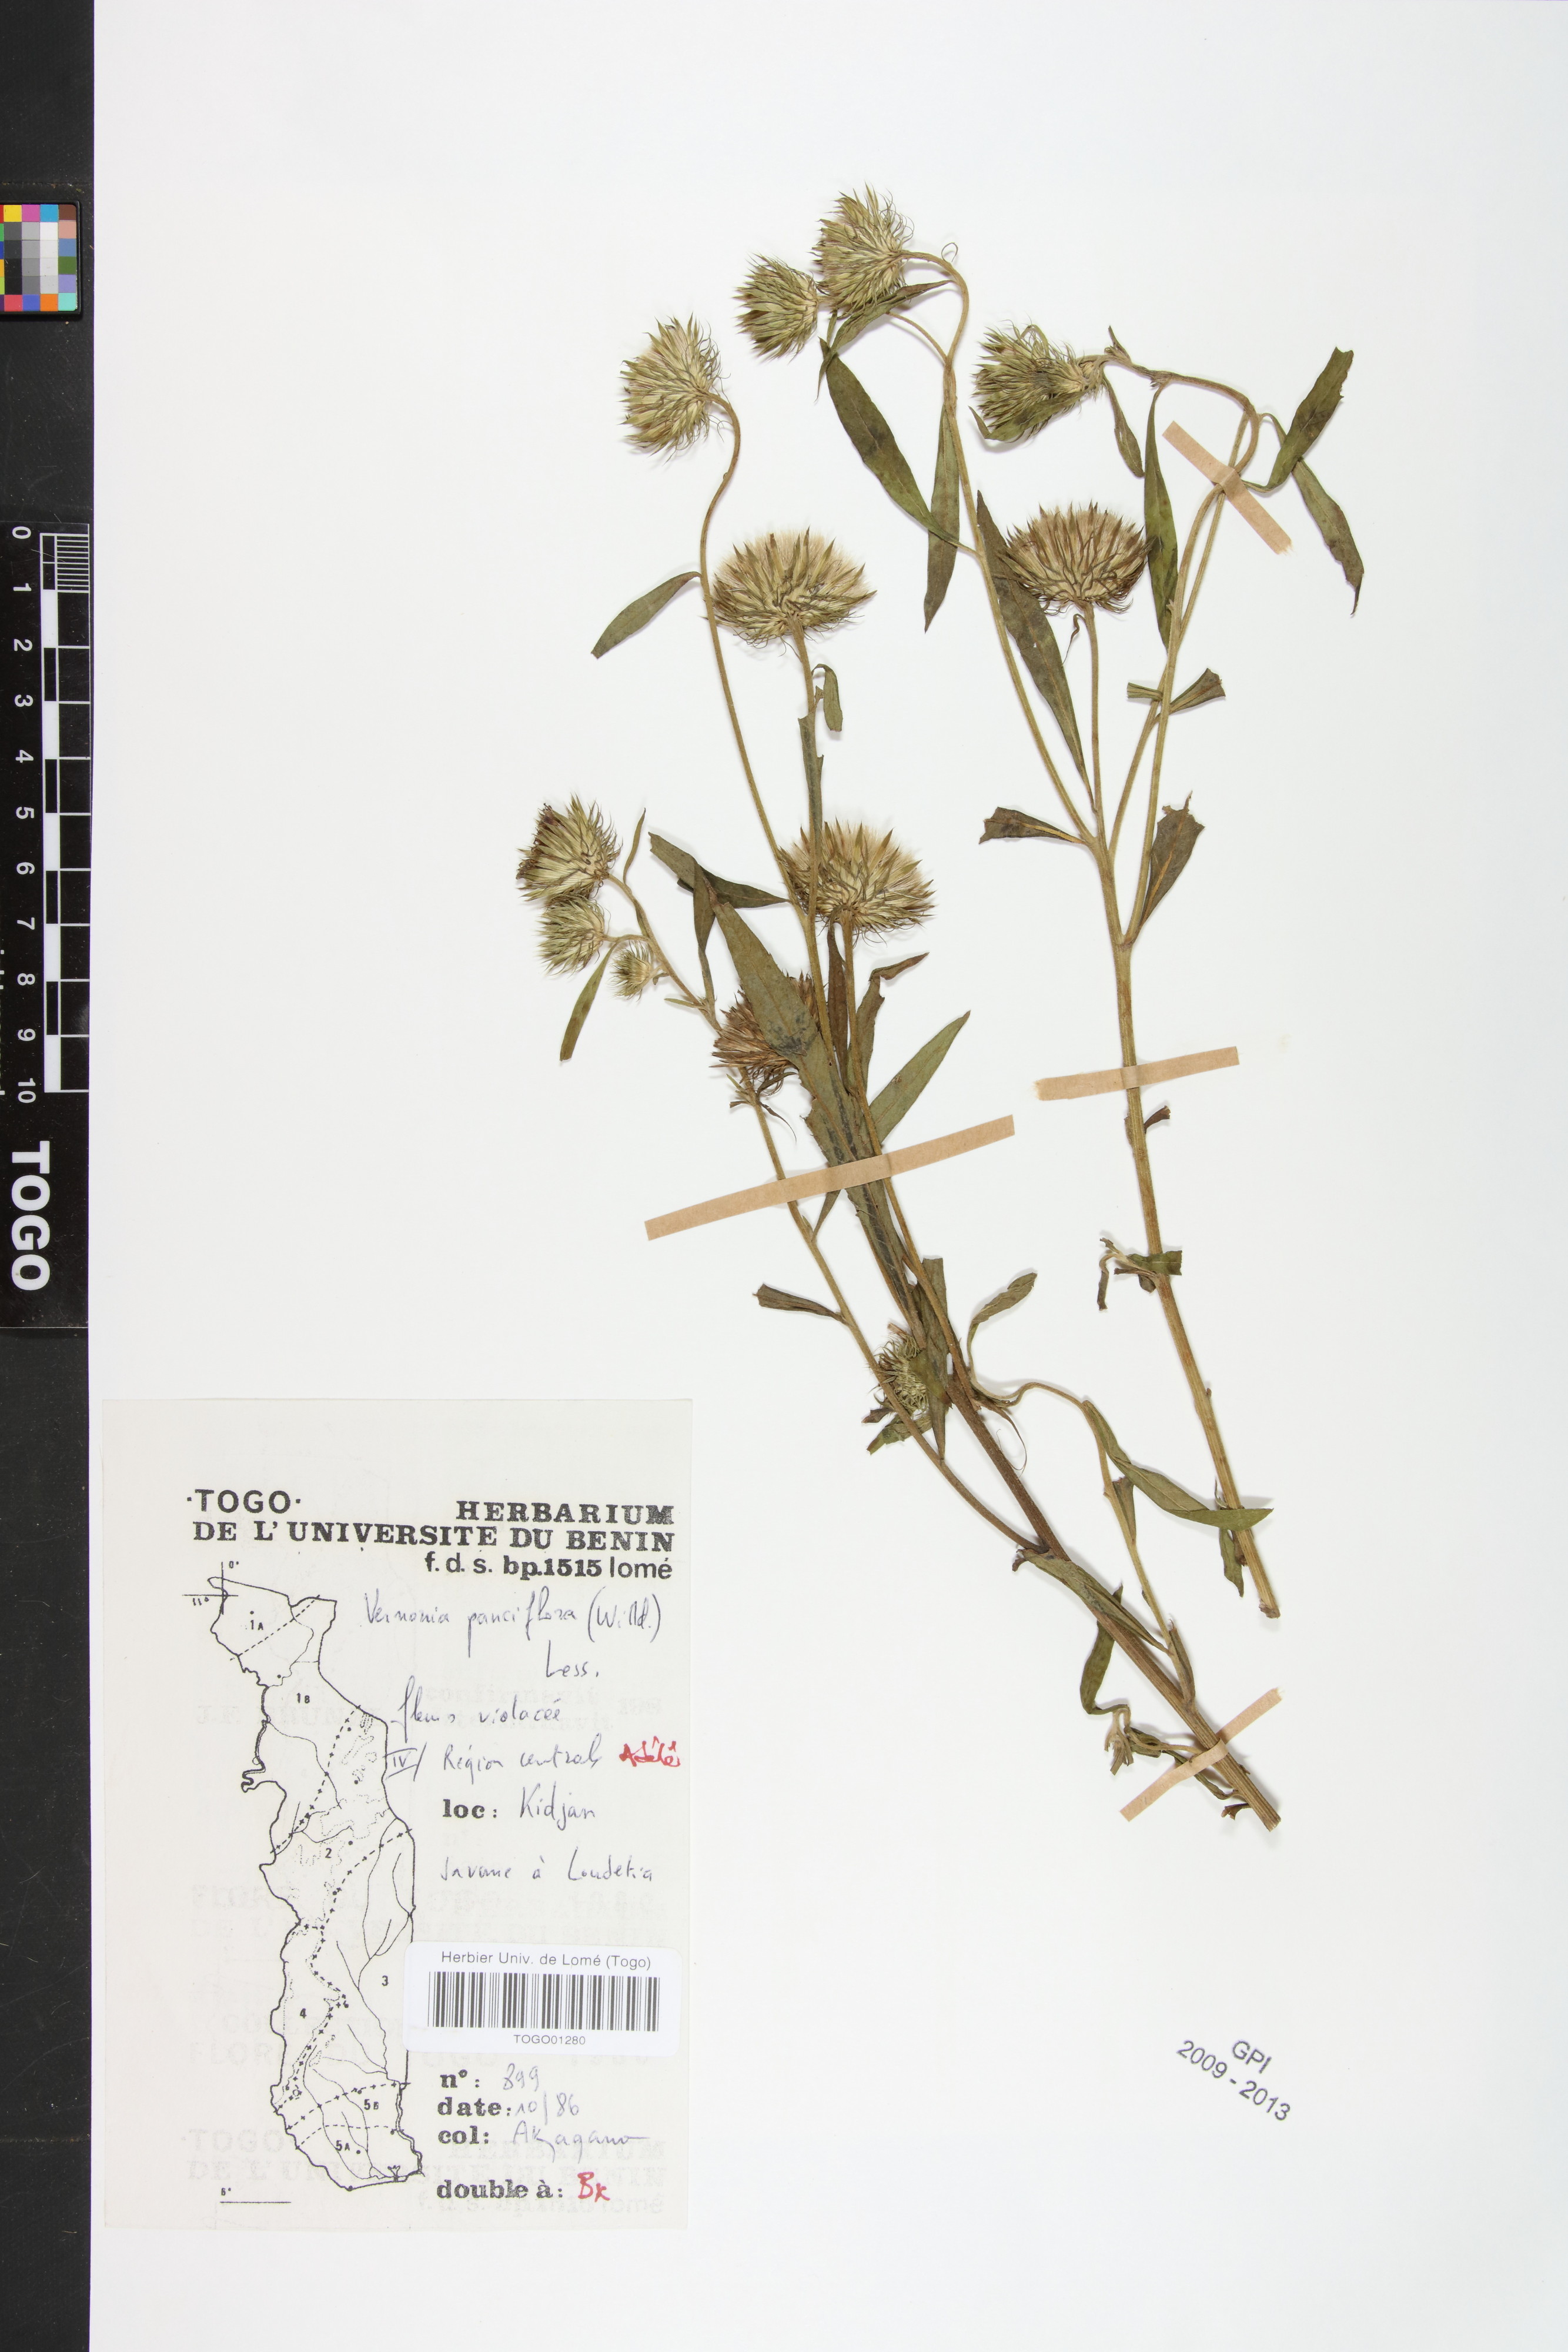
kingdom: Plantae
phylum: Tracheophyta
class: Magnoliopsida
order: Asterales
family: Asteraceae
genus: Vernonia
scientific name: Vernonia galamensis
